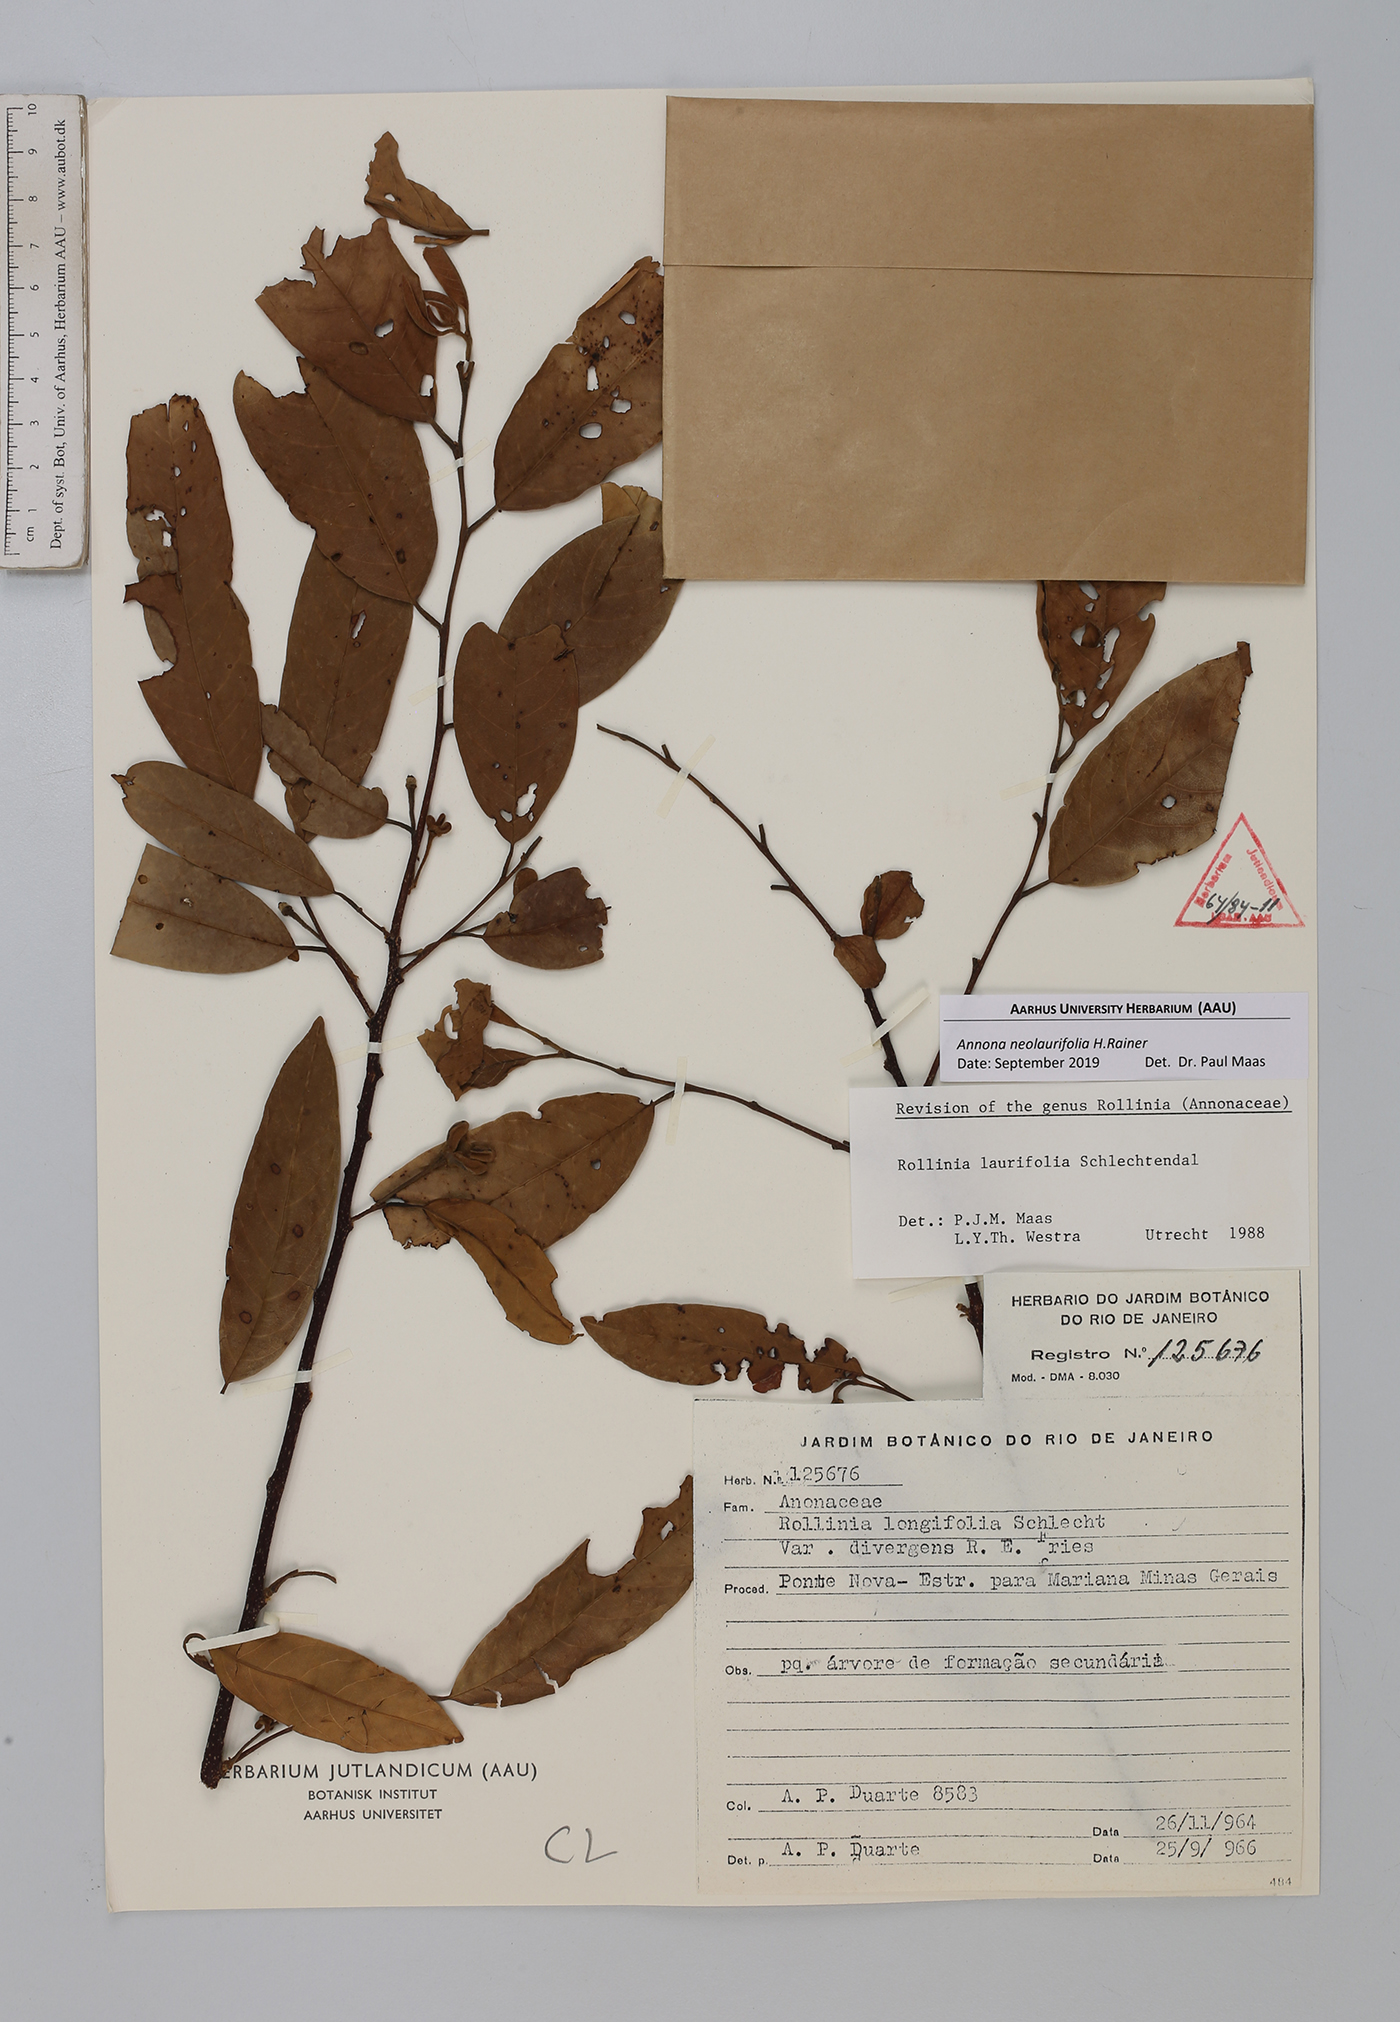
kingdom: Plantae
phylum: Tracheophyta
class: Magnoliopsida
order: Magnoliales
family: Annonaceae
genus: Annona
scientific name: Annona neolaurifolia
